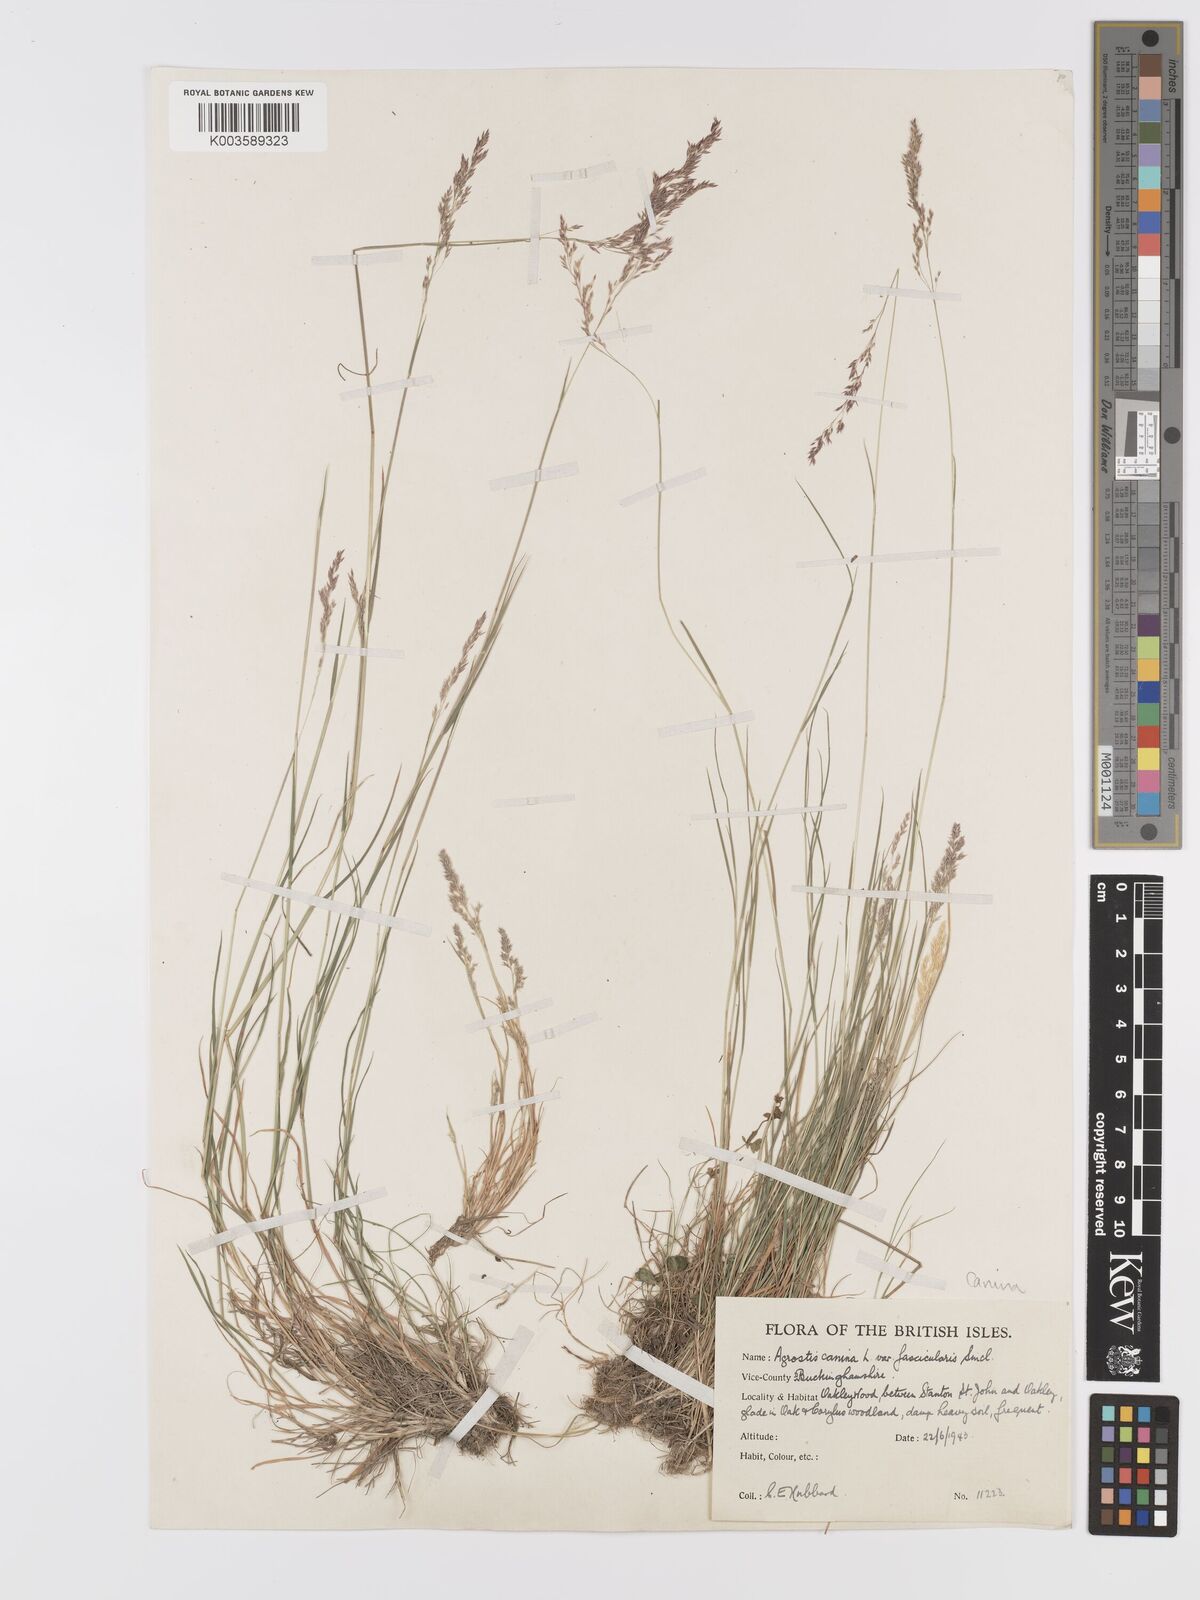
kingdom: Plantae
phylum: Tracheophyta
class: Liliopsida
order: Poales
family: Poaceae
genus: Agrostis
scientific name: Agrostis canina
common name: Velvet bent
